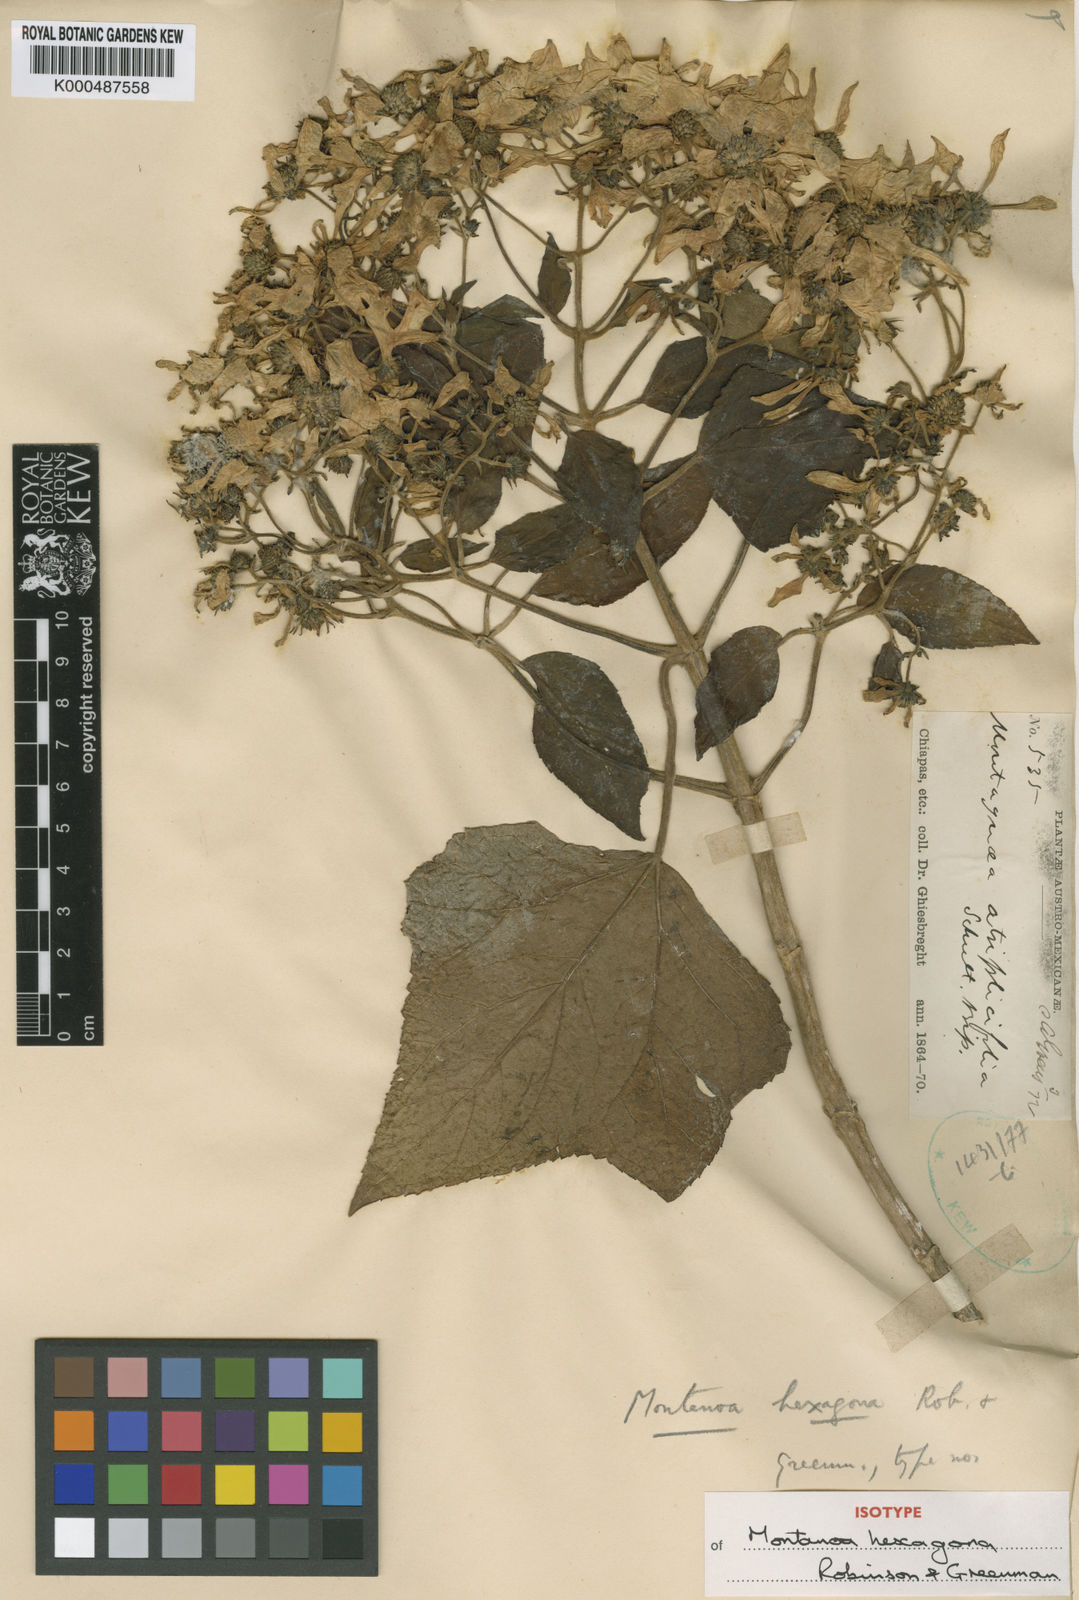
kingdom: Plantae
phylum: Tracheophyta
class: Magnoliopsida
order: Asterales
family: Asteraceae
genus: Montanoa
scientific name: Montanoa hexagona
